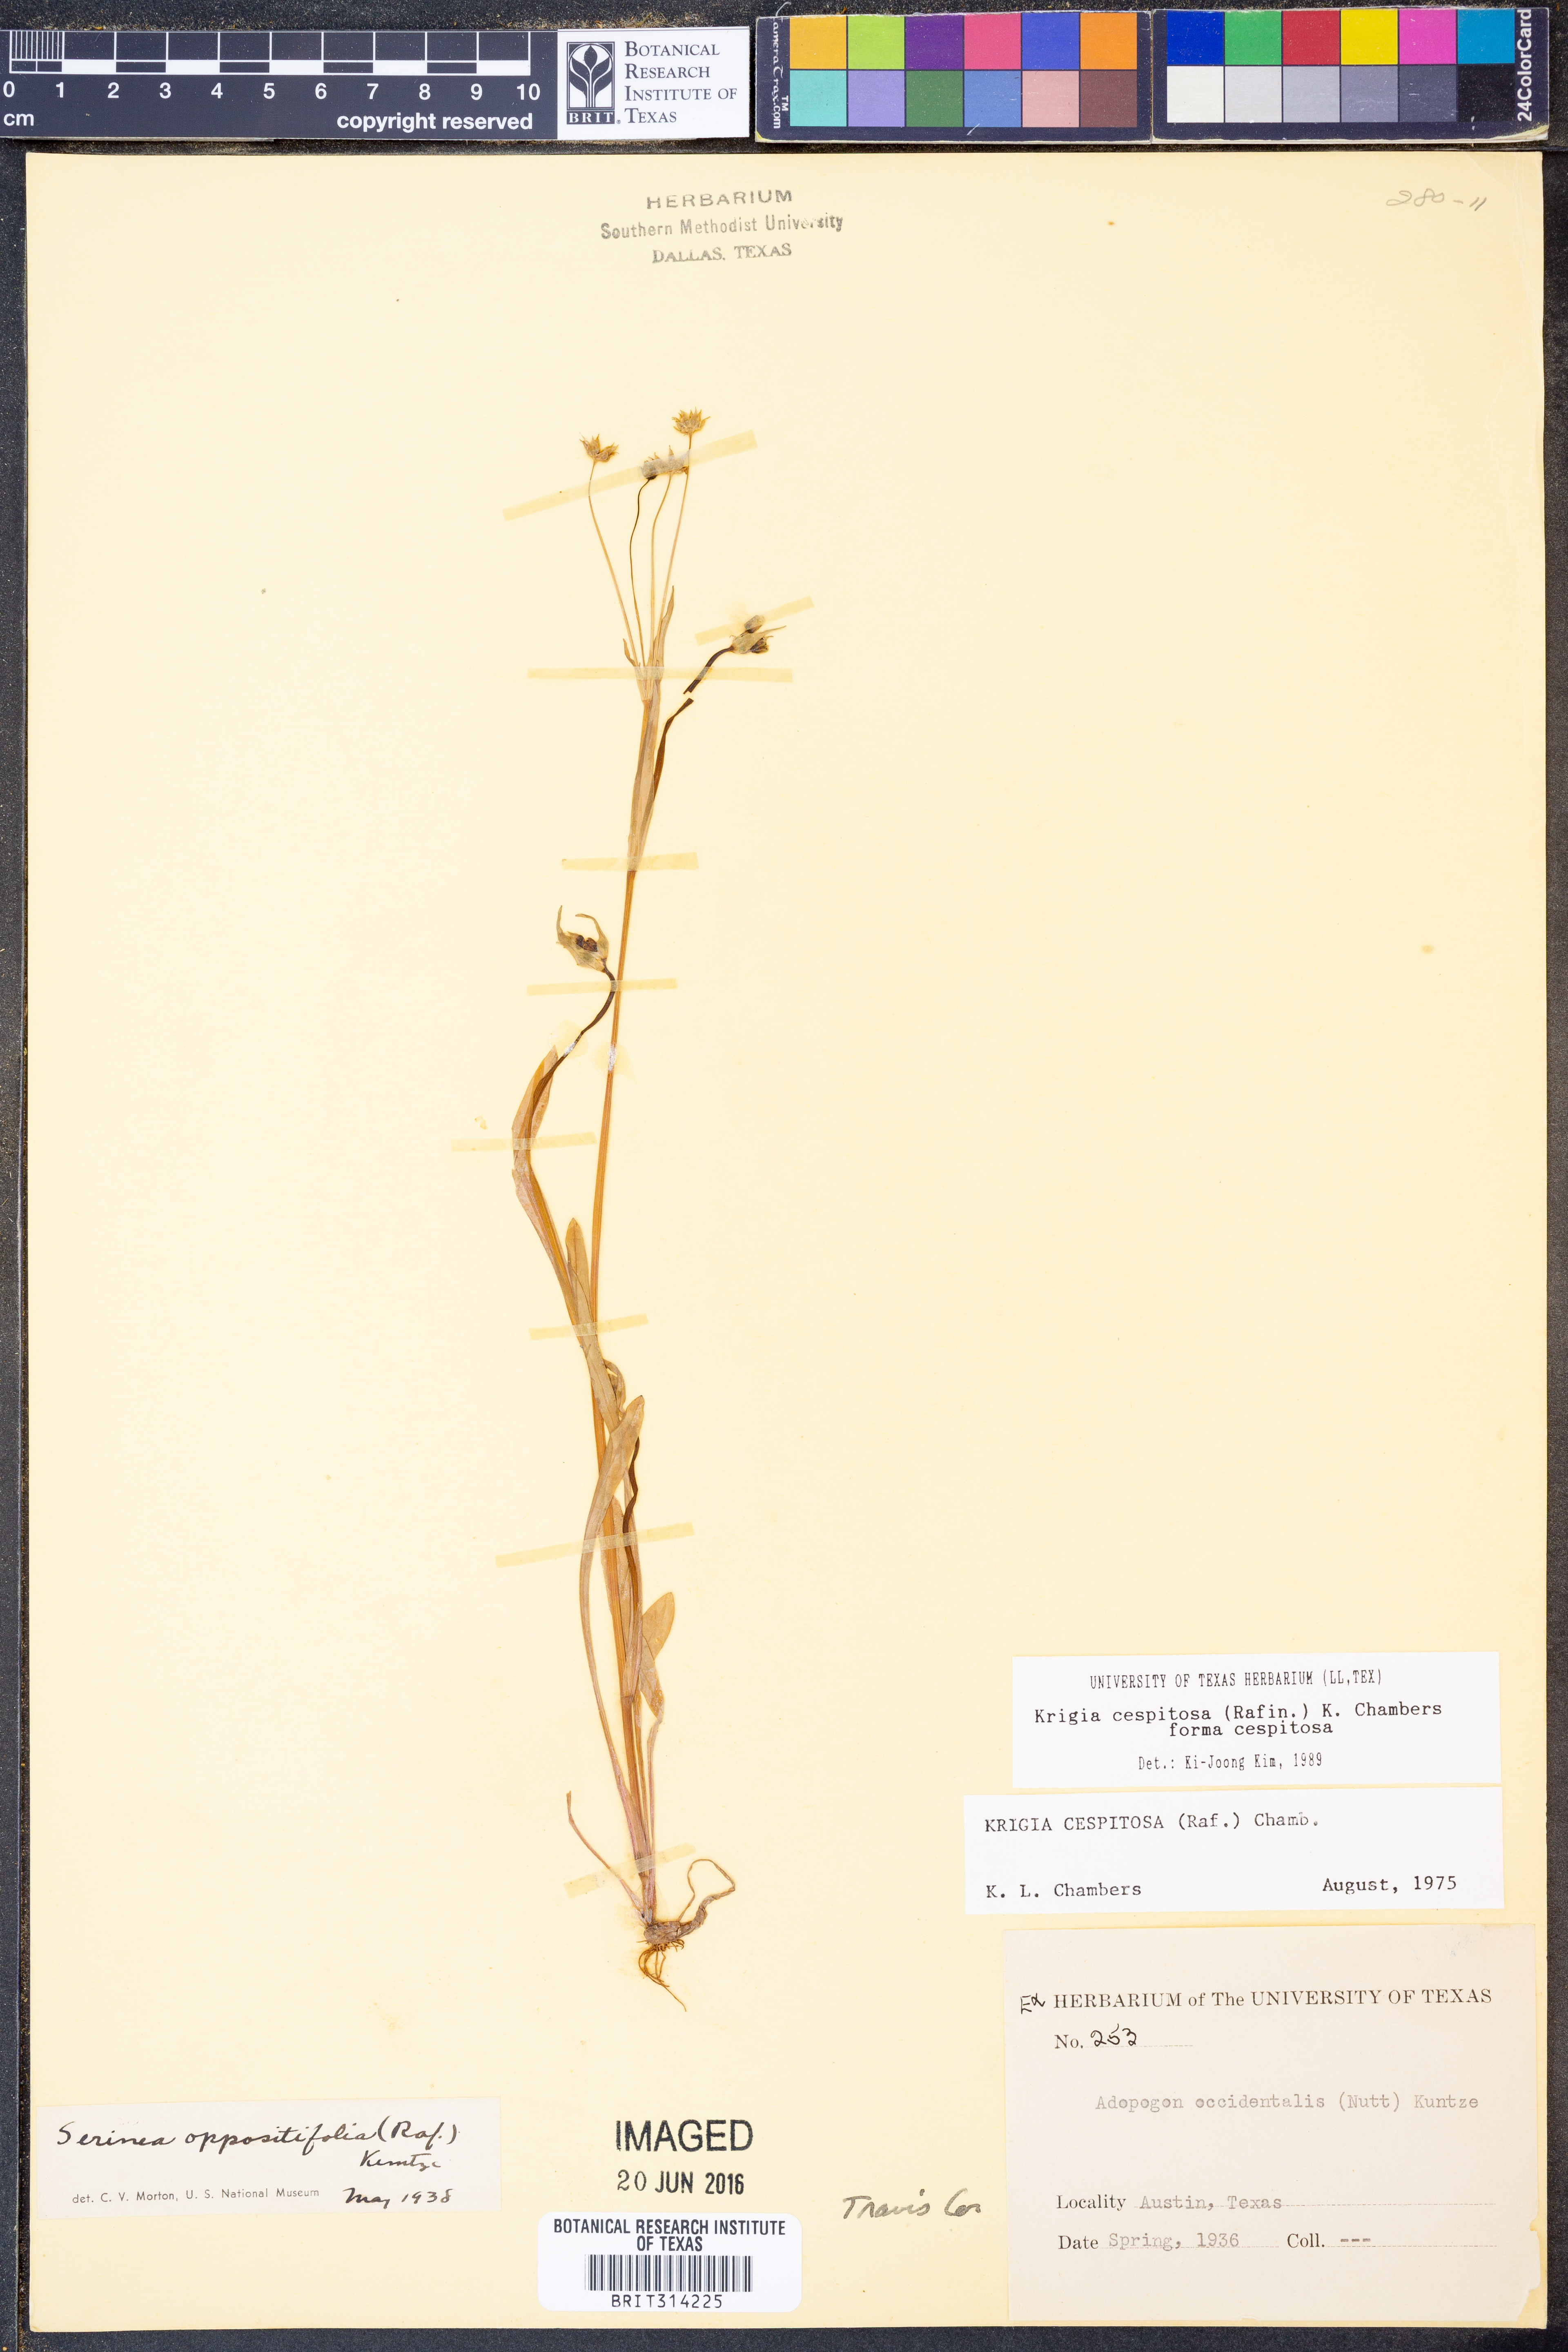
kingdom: Plantae
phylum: Tracheophyta
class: Magnoliopsida
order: Asterales
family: Asteraceae
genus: Krigia
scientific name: Krigia cespitosa
